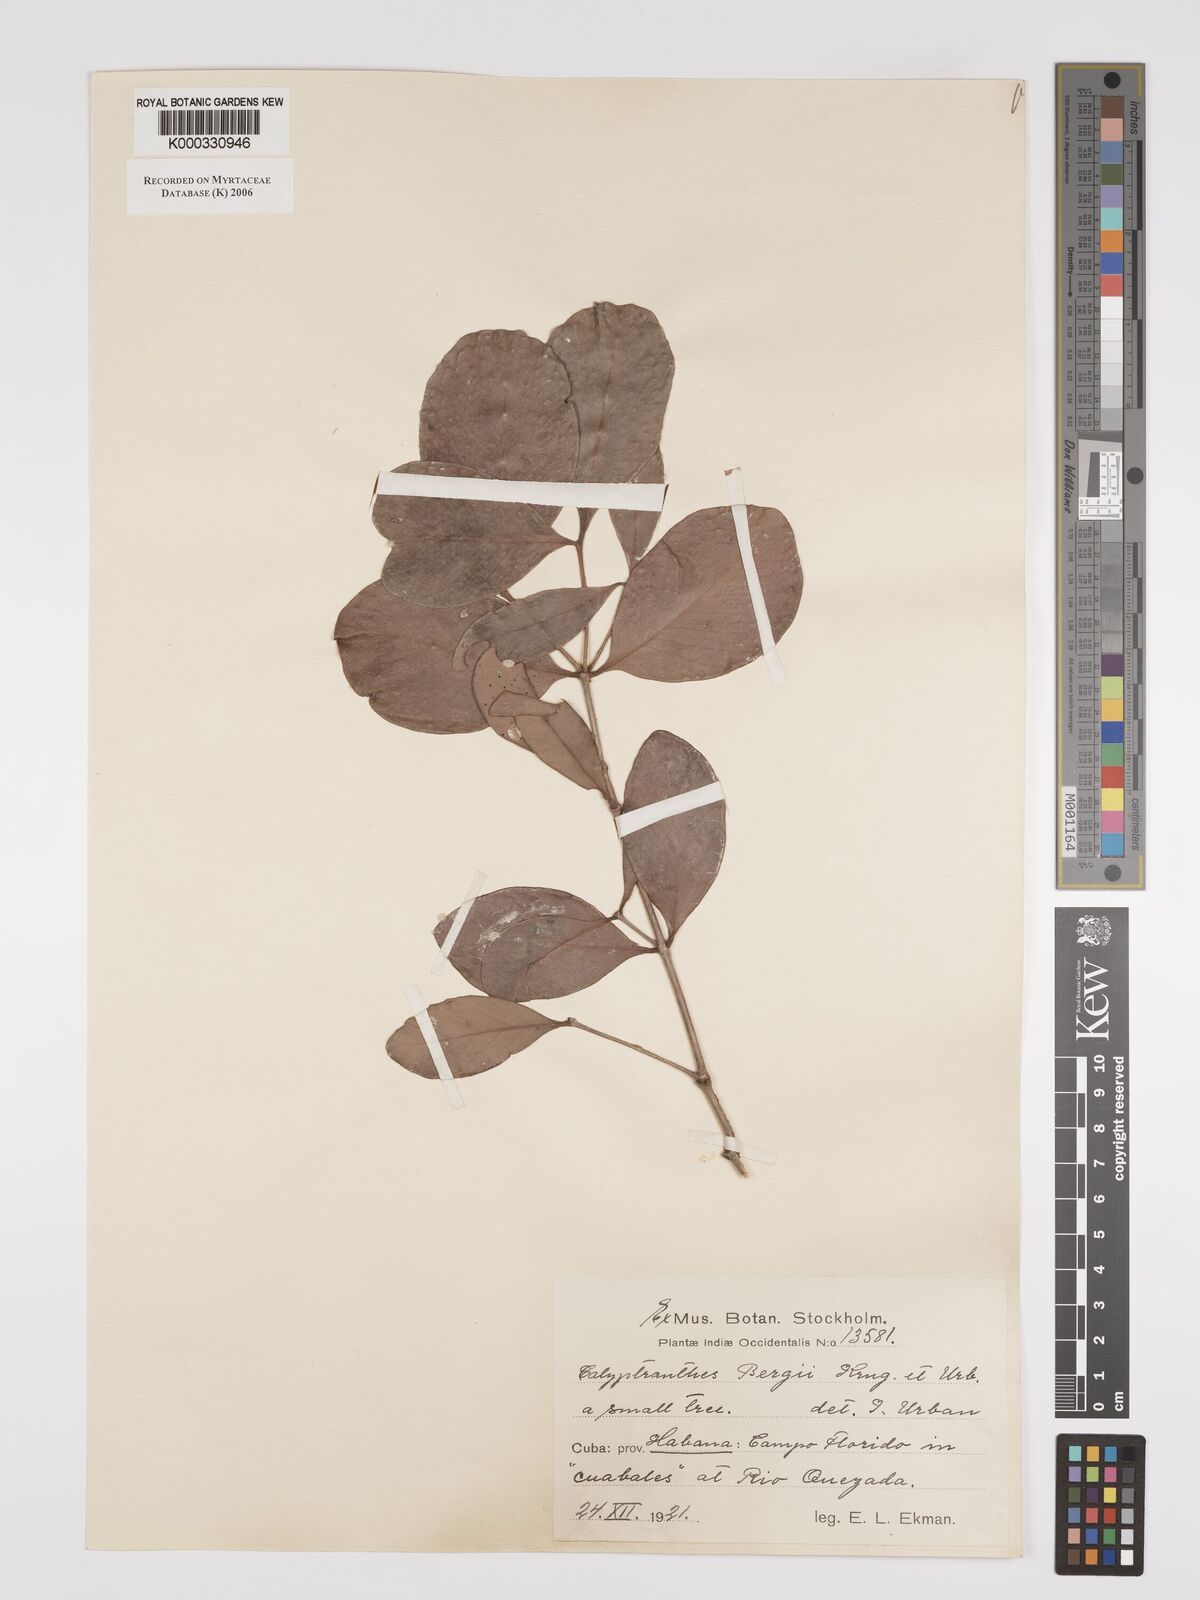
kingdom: Plantae
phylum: Tracheophyta
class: Magnoliopsida
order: Myrtales
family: Myrtaceae
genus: Myrcia
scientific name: Myrcia bergii
